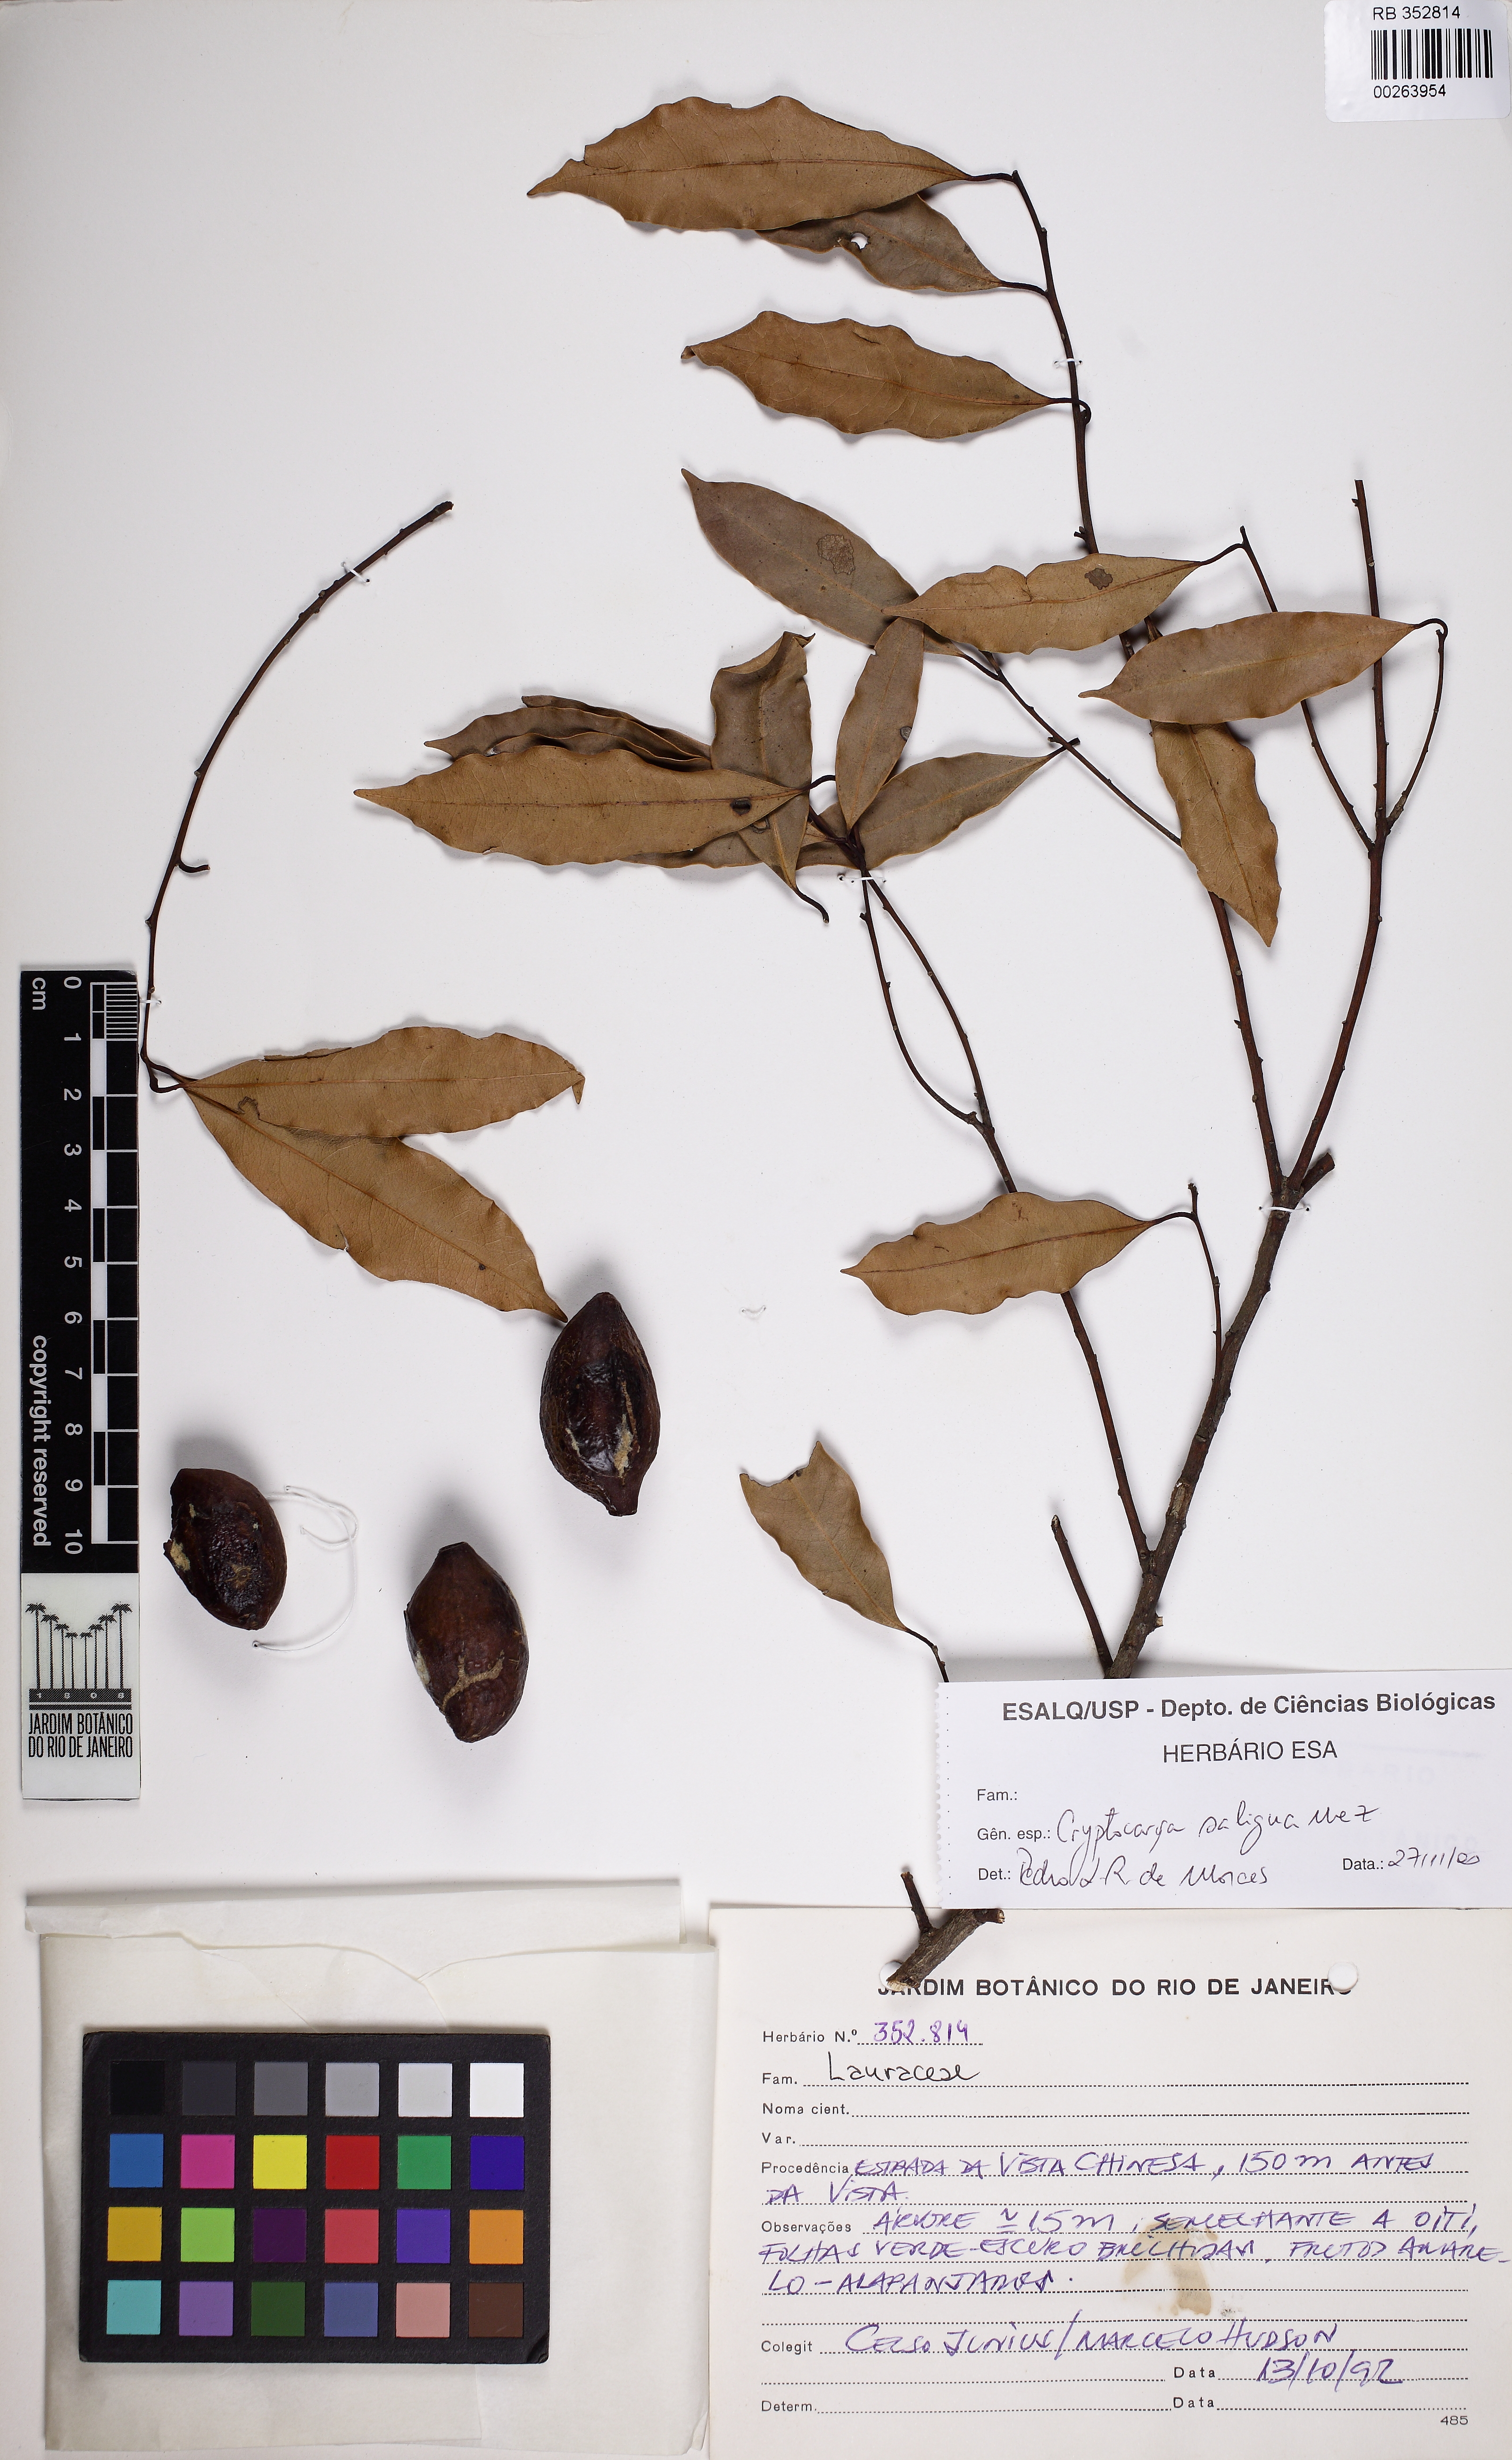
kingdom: Plantae
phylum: Tracheophyta
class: Magnoliopsida
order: Laurales
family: Lauraceae
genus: Cryptocarya
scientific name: Cryptocarya saligna
